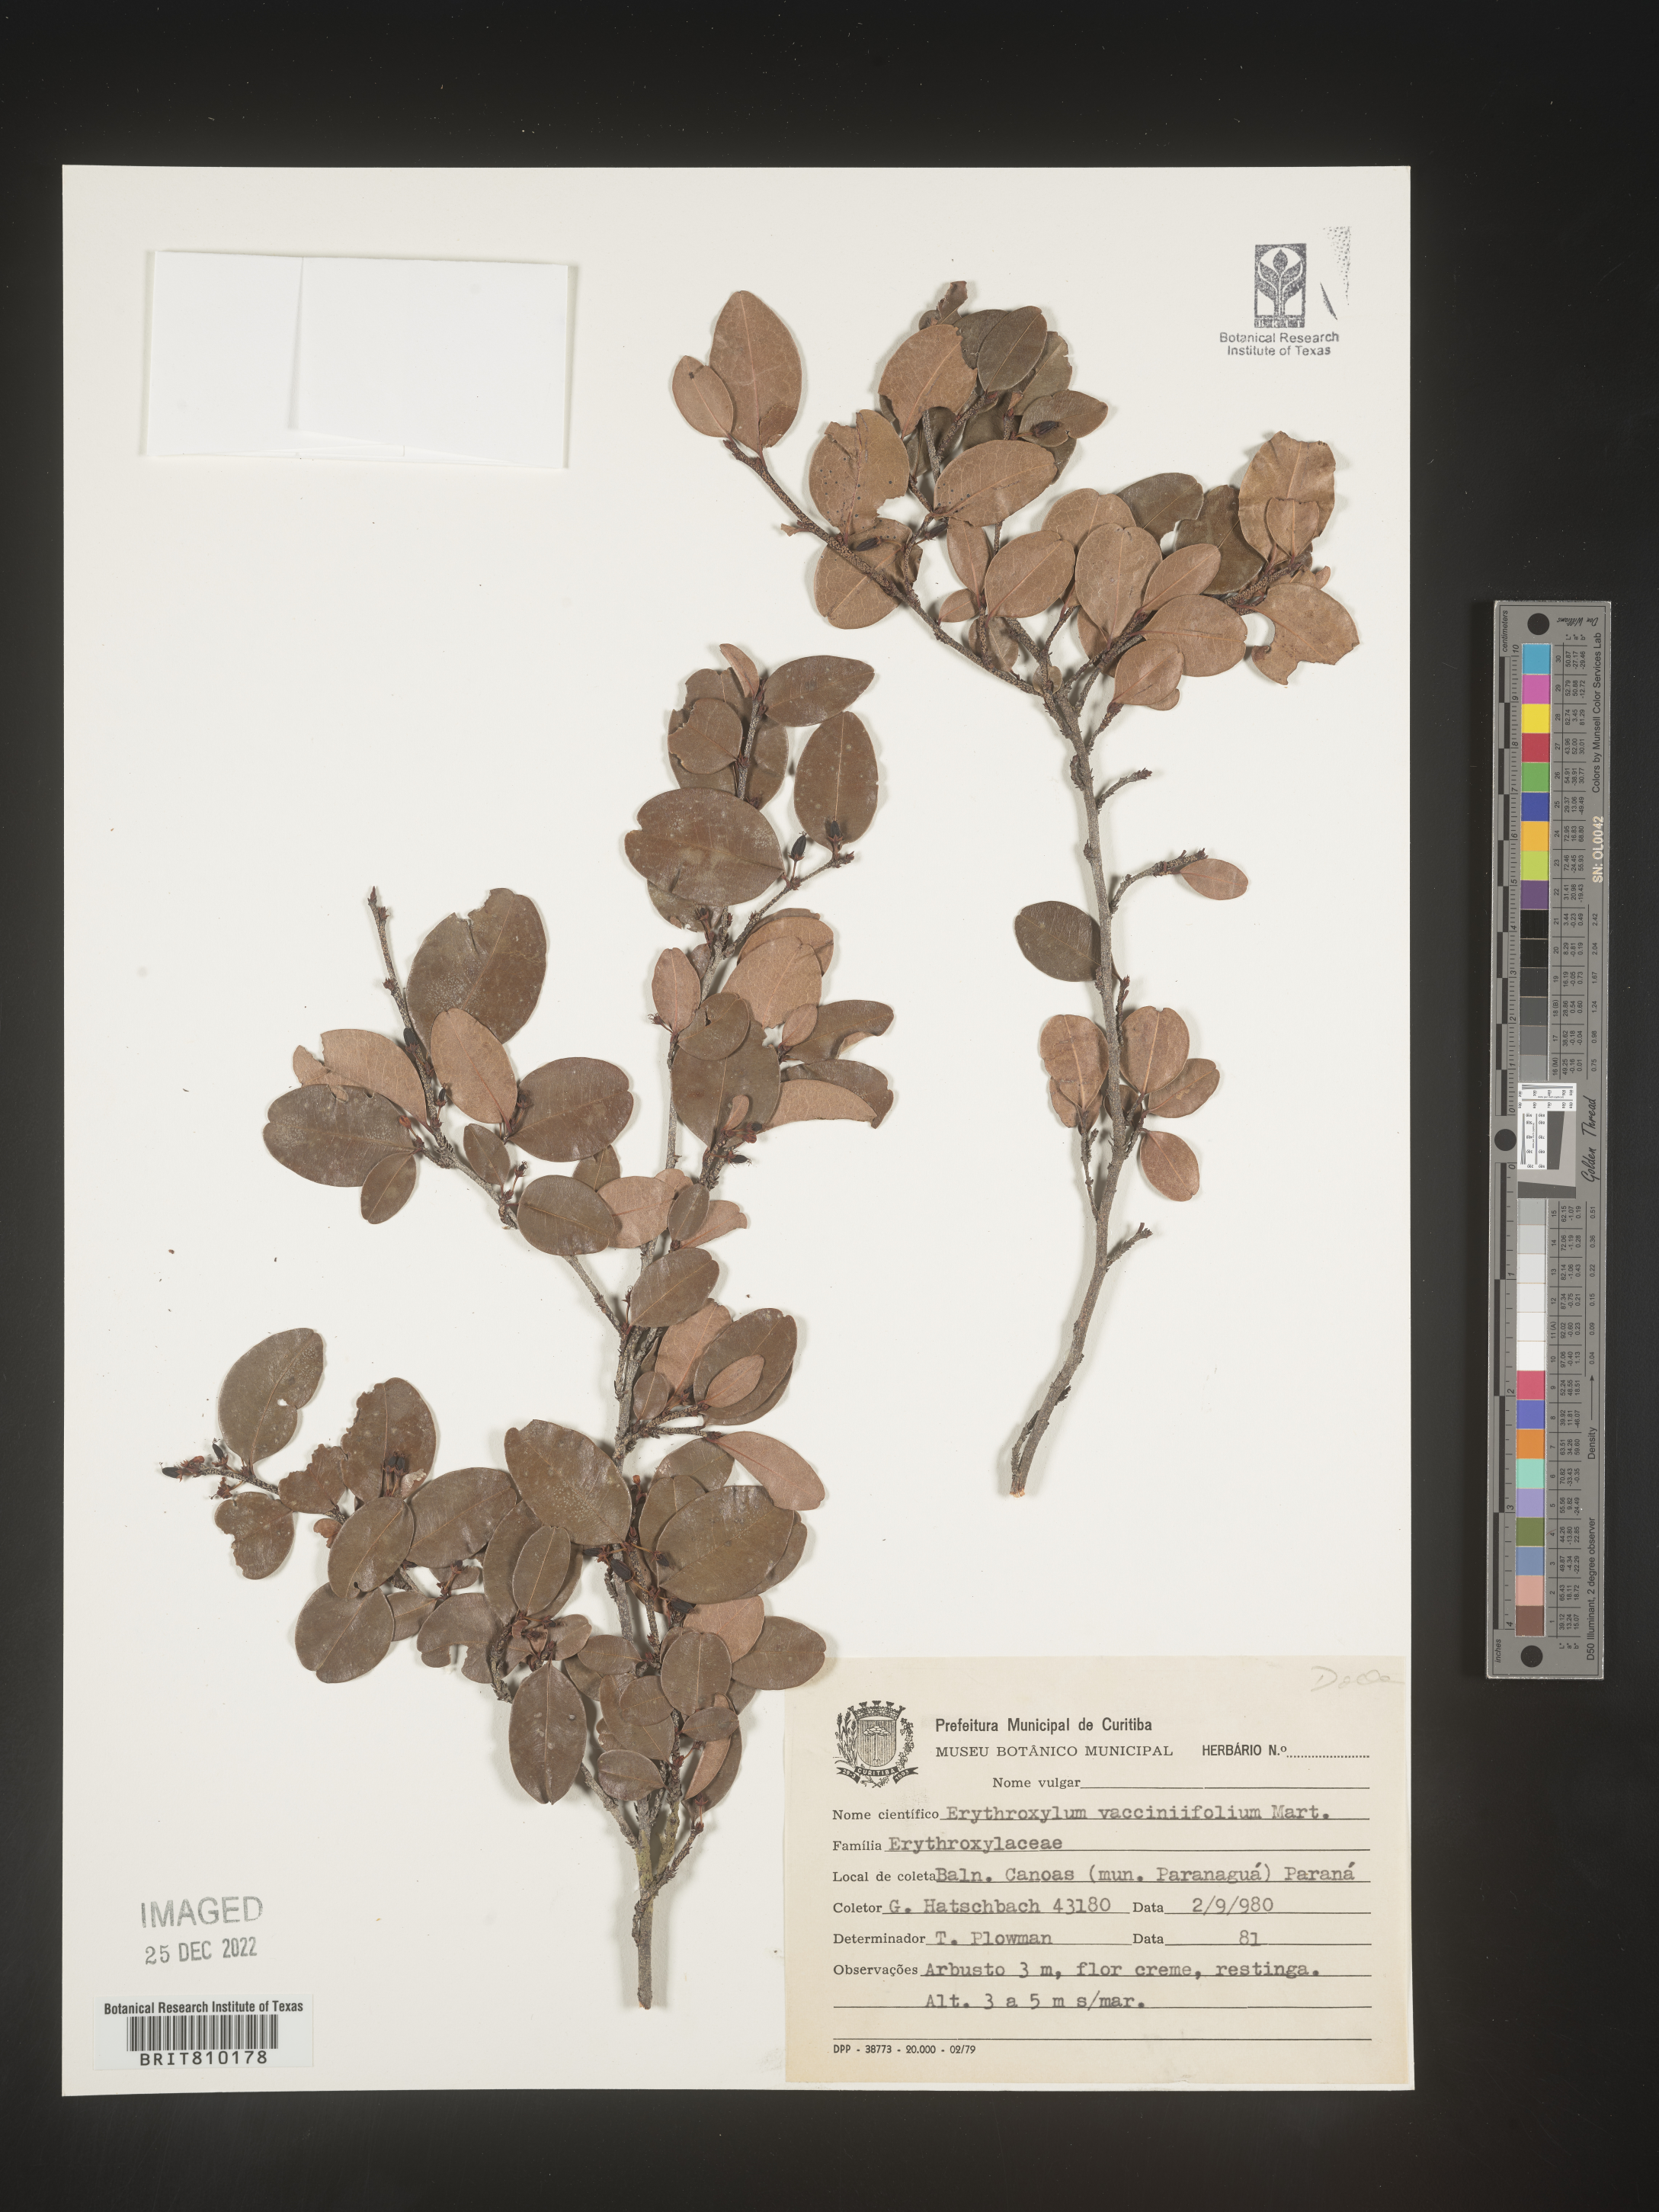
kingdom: Plantae
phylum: Tracheophyta
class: Magnoliopsida
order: Malpighiales
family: Erythroxylaceae
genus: Erythroxylum
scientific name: Erythroxylum
